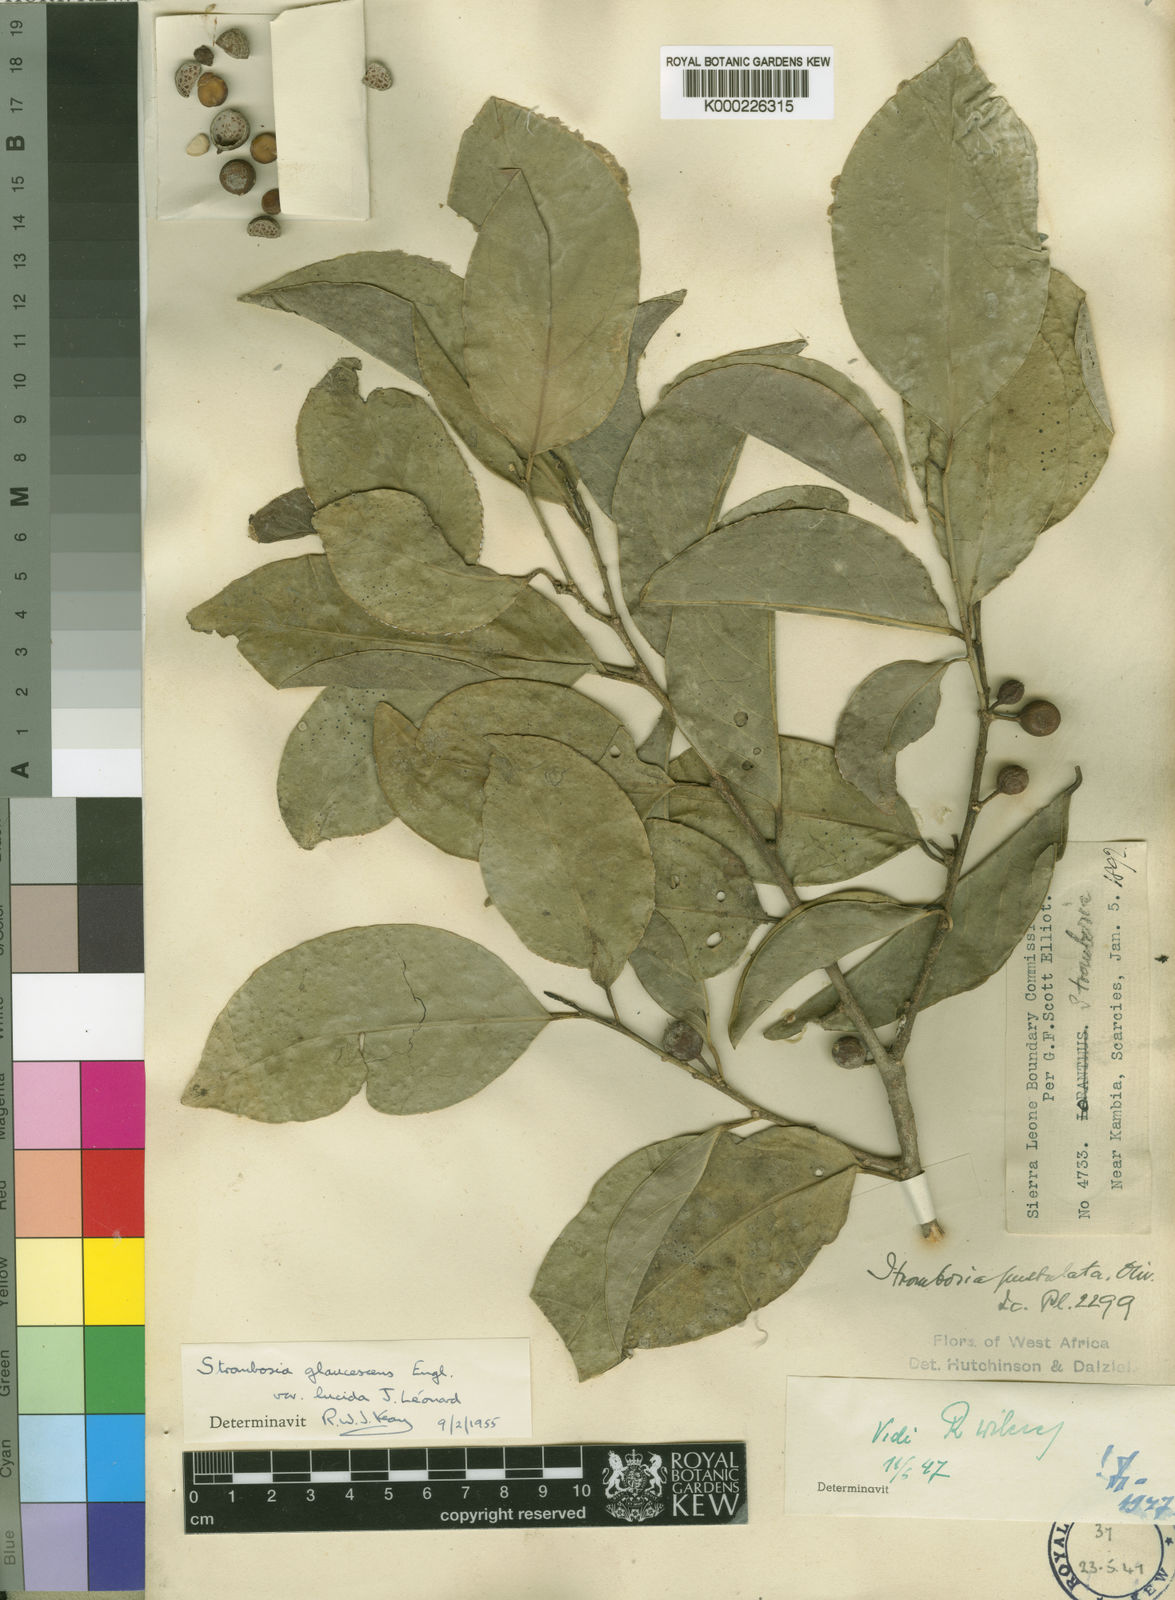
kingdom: Plantae
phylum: Tracheophyta
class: Magnoliopsida
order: Santalales
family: Strombosiaceae
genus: Strombosia
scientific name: Strombosia pustulata
